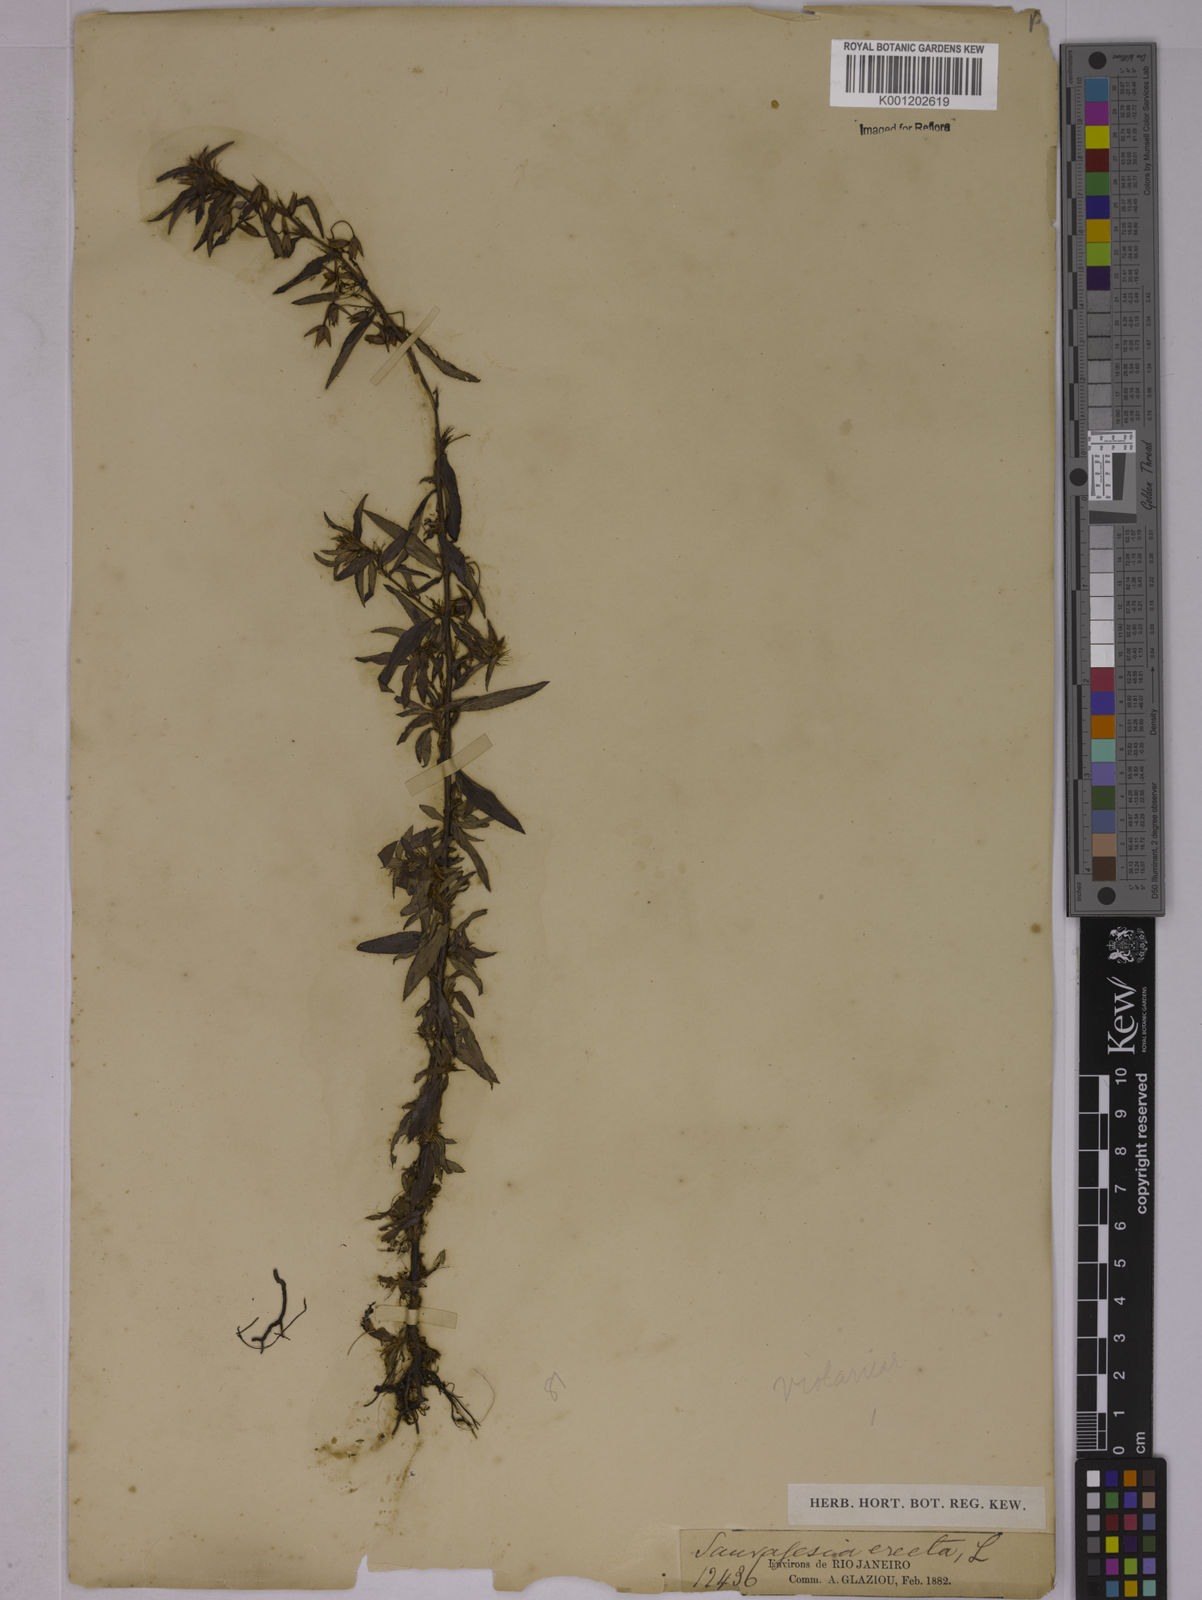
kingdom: Plantae
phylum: Tracheophyta
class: Magnoliopsida
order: Malpighiales
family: Ochnaceae
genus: Sauvagesia
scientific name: Sauvagesia erecta
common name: Creole tea
